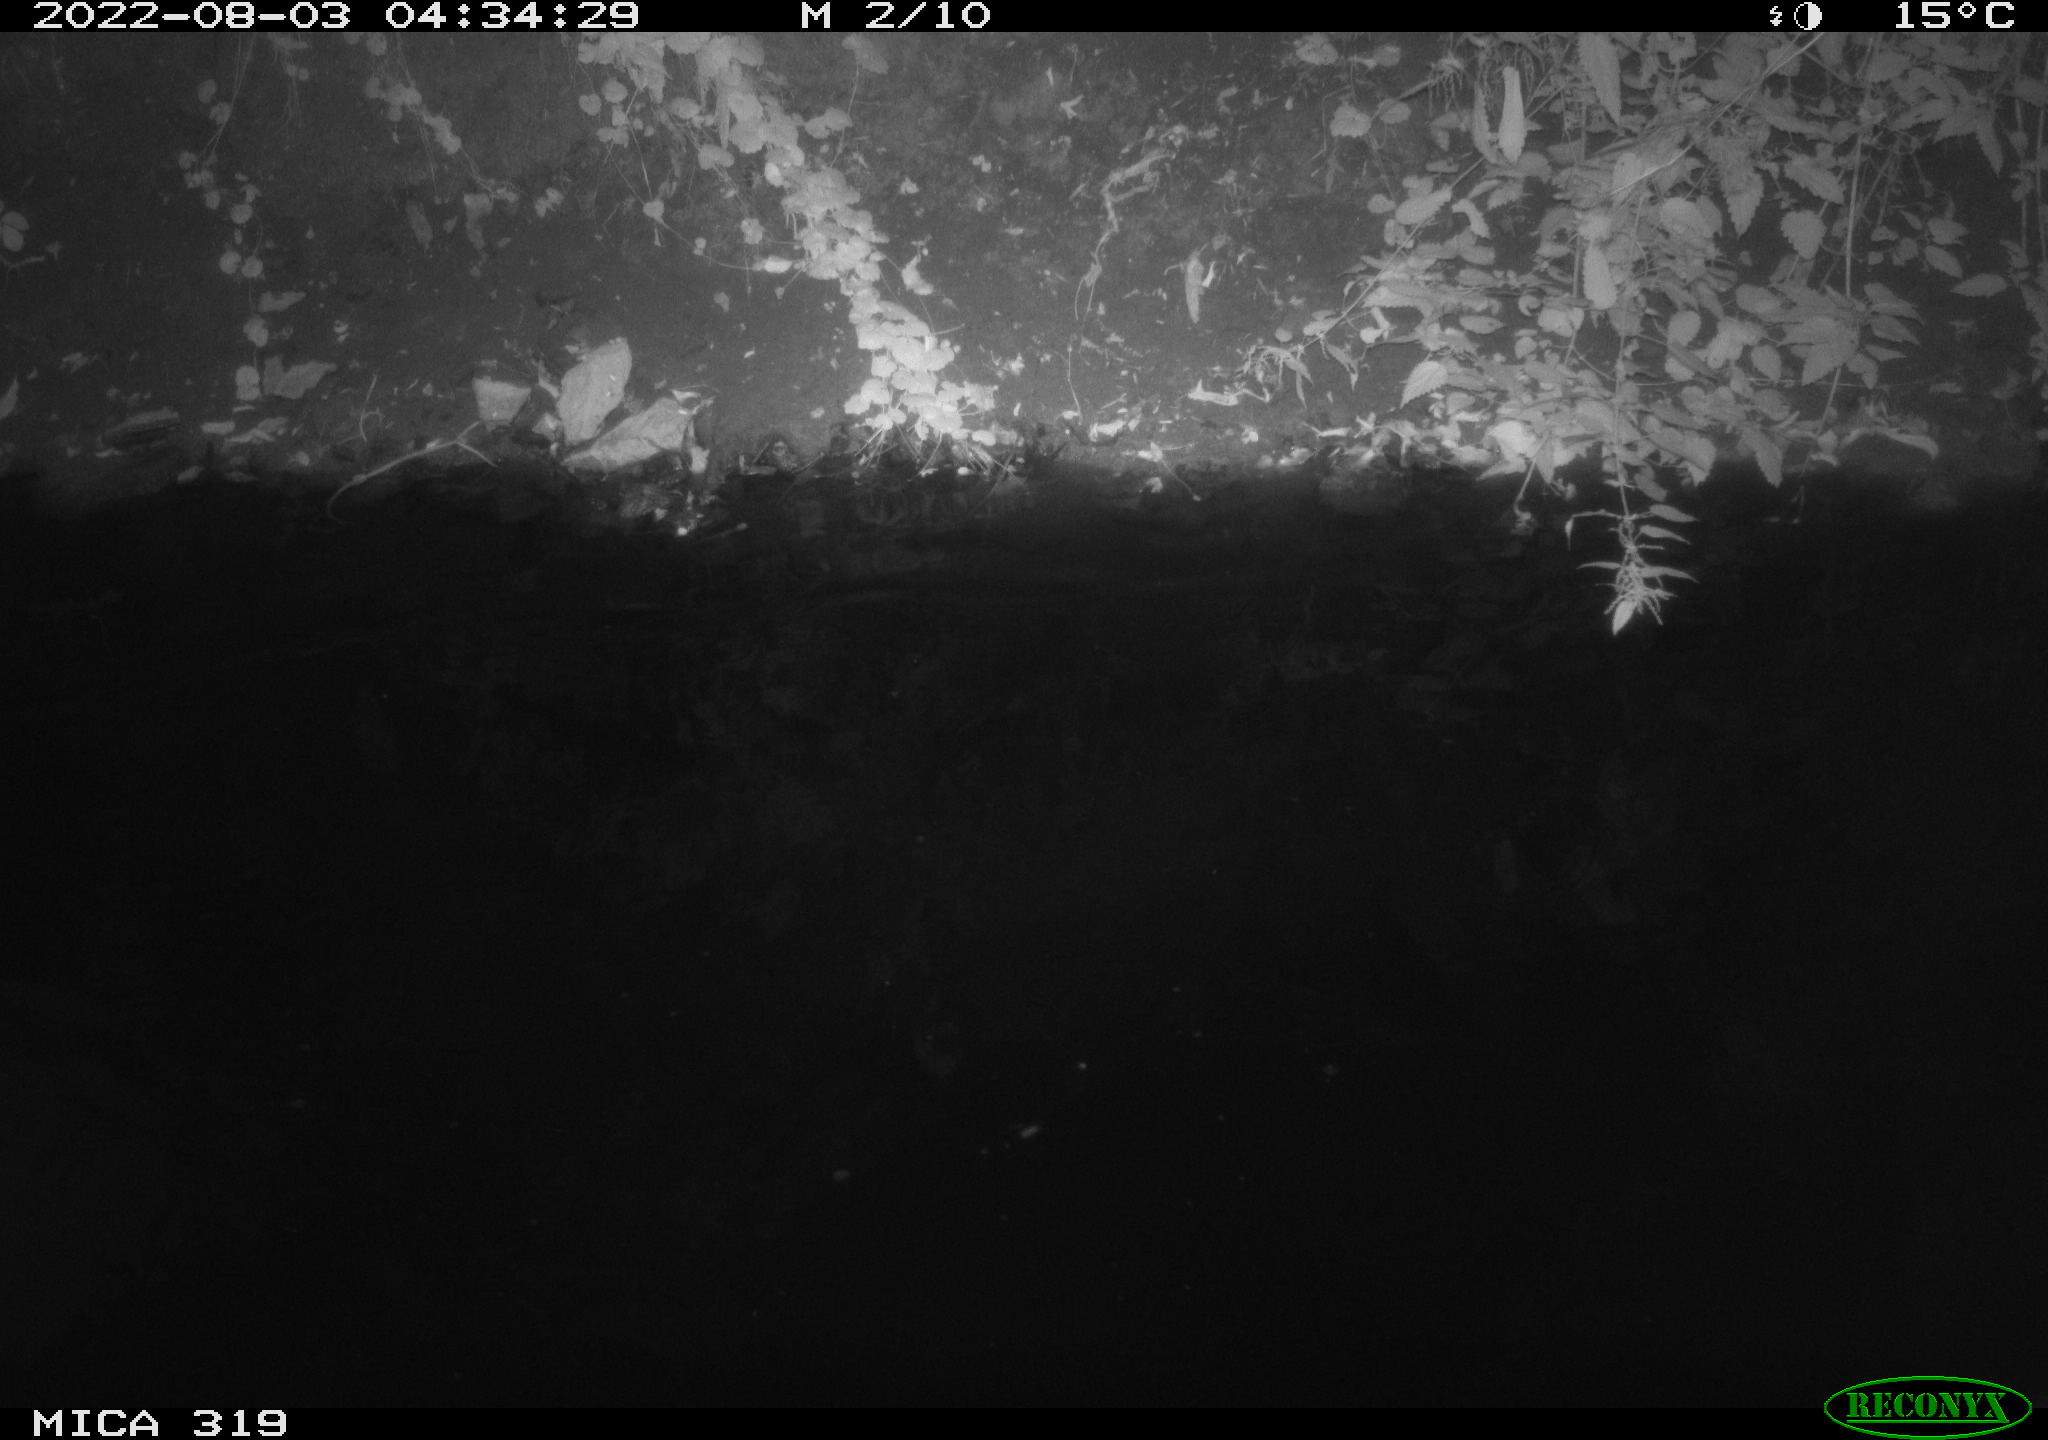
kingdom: Animalia
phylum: Chordata
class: Aves
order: Anseriformes
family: Anatidae
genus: Anas
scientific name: Anas
